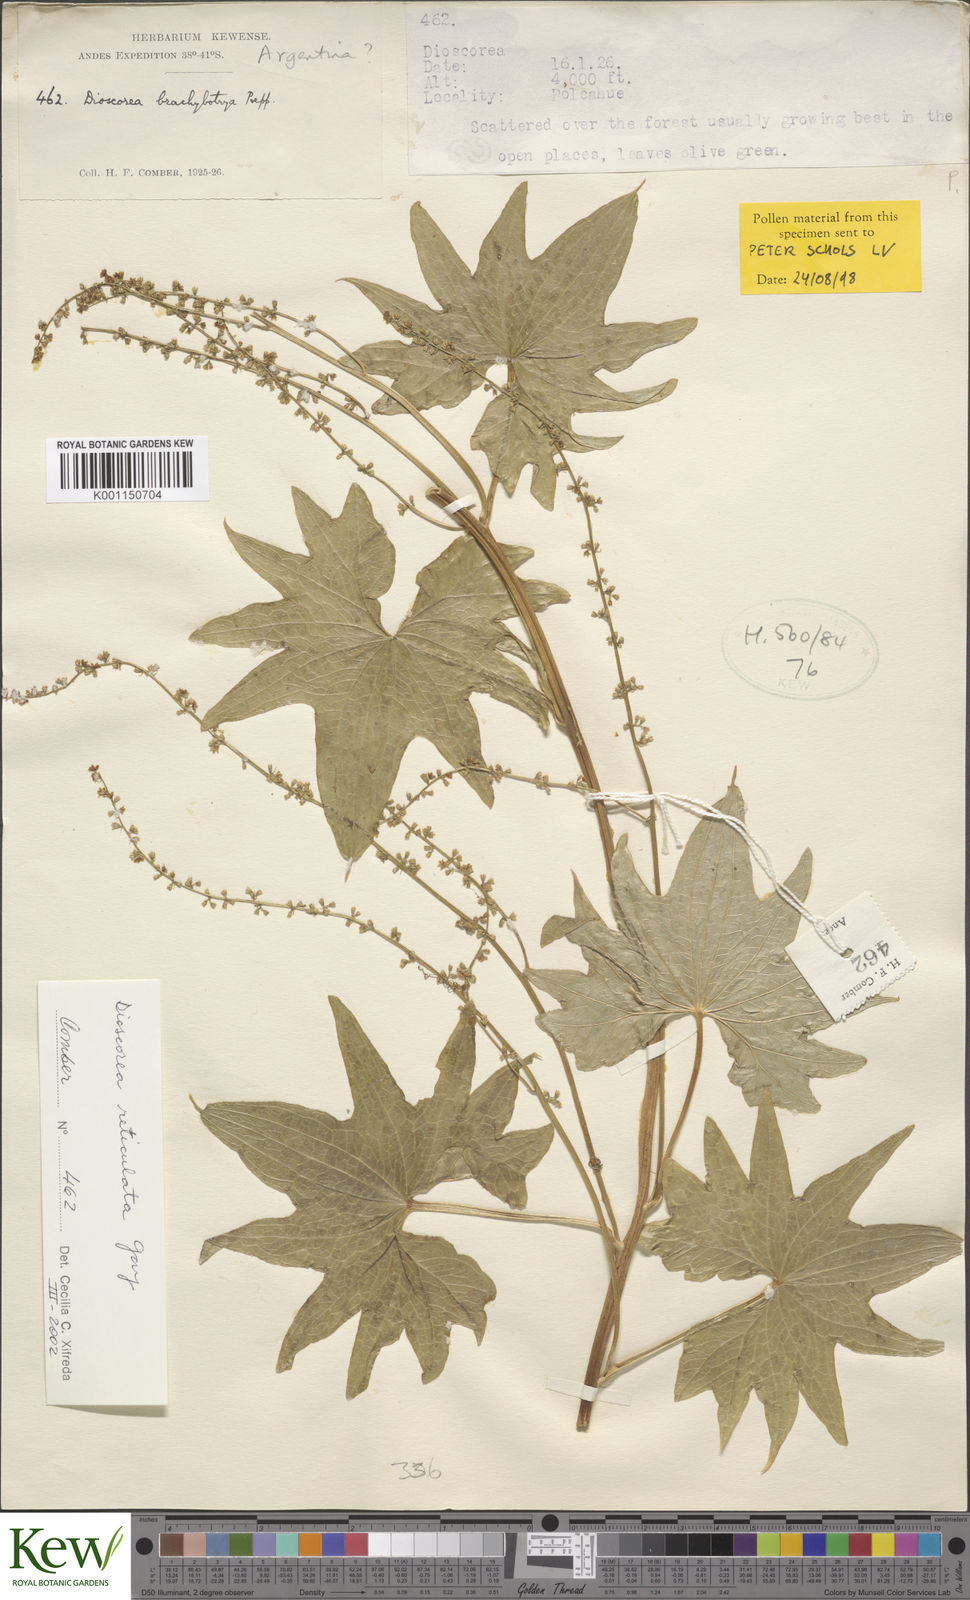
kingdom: Plantae
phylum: Tracheophyta
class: Liliopsida
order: Dioscoreales
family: Dioscoreaceae
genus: Dioscorea
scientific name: Dioscorea brachybotrya
